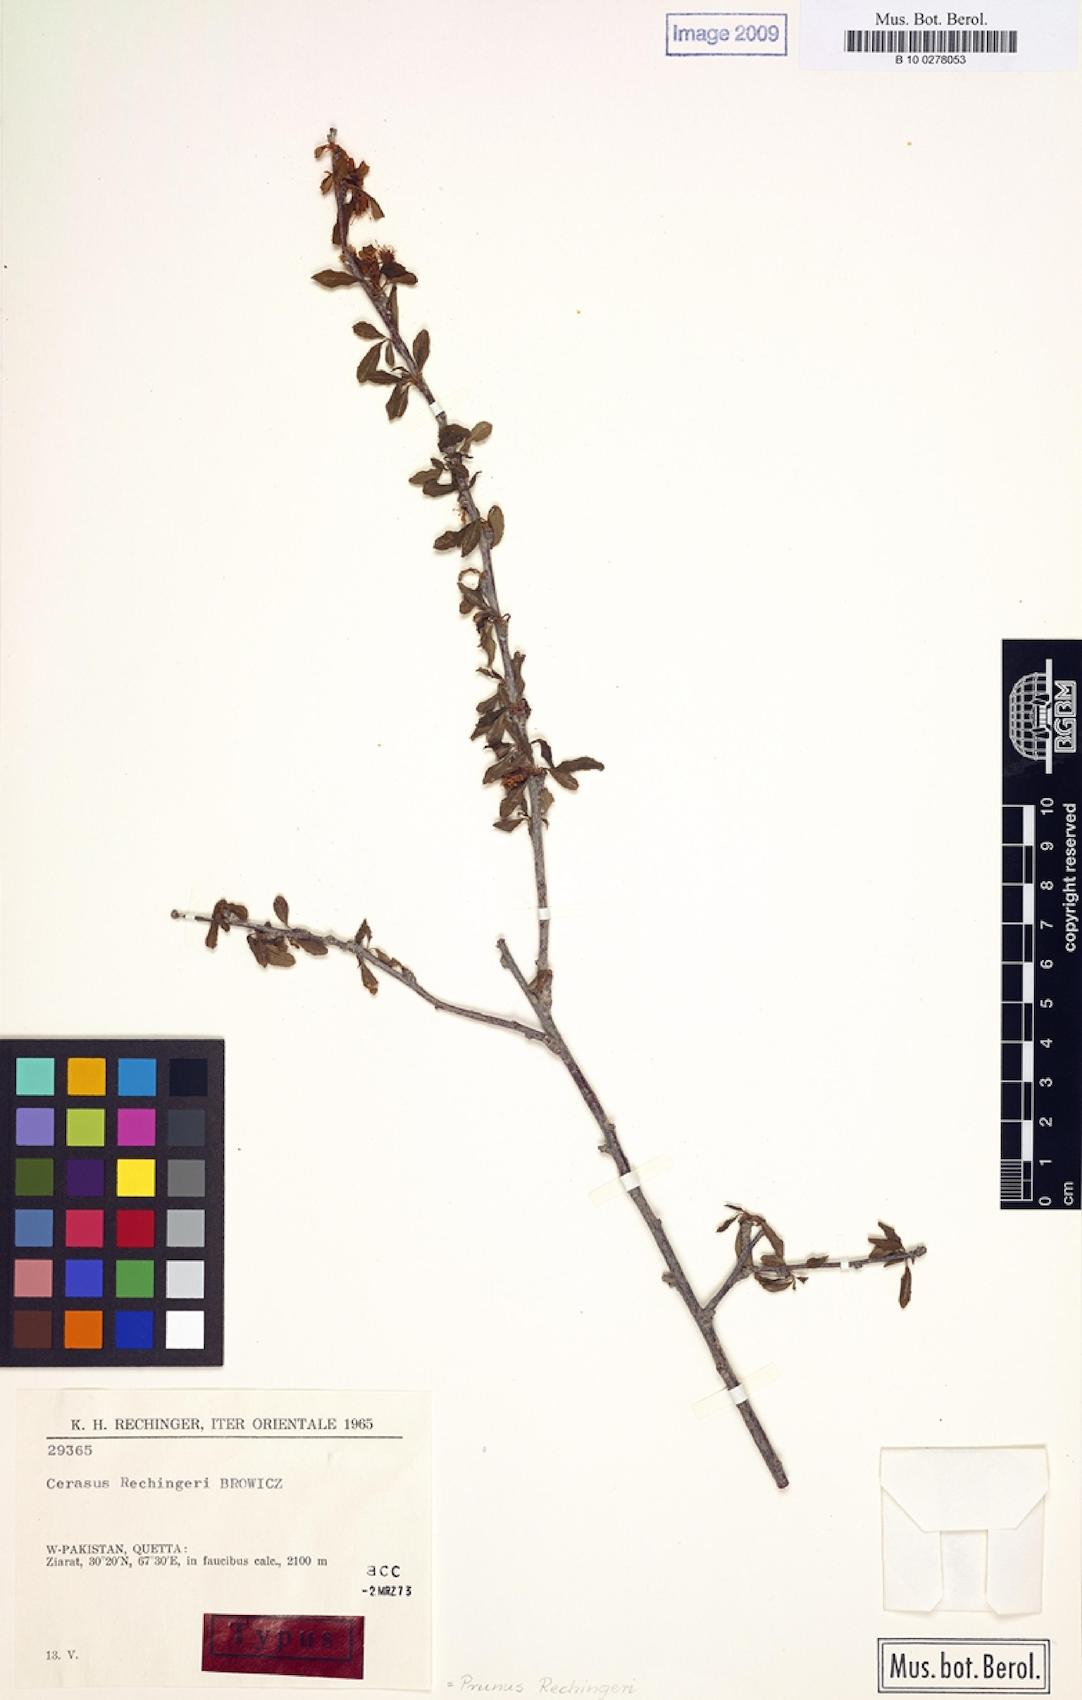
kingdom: Plantae
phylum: Tracheophyta
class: Magnoliopsida
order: Rosales
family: Rosaceae
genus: Prunus
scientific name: Prunus rechingeri
